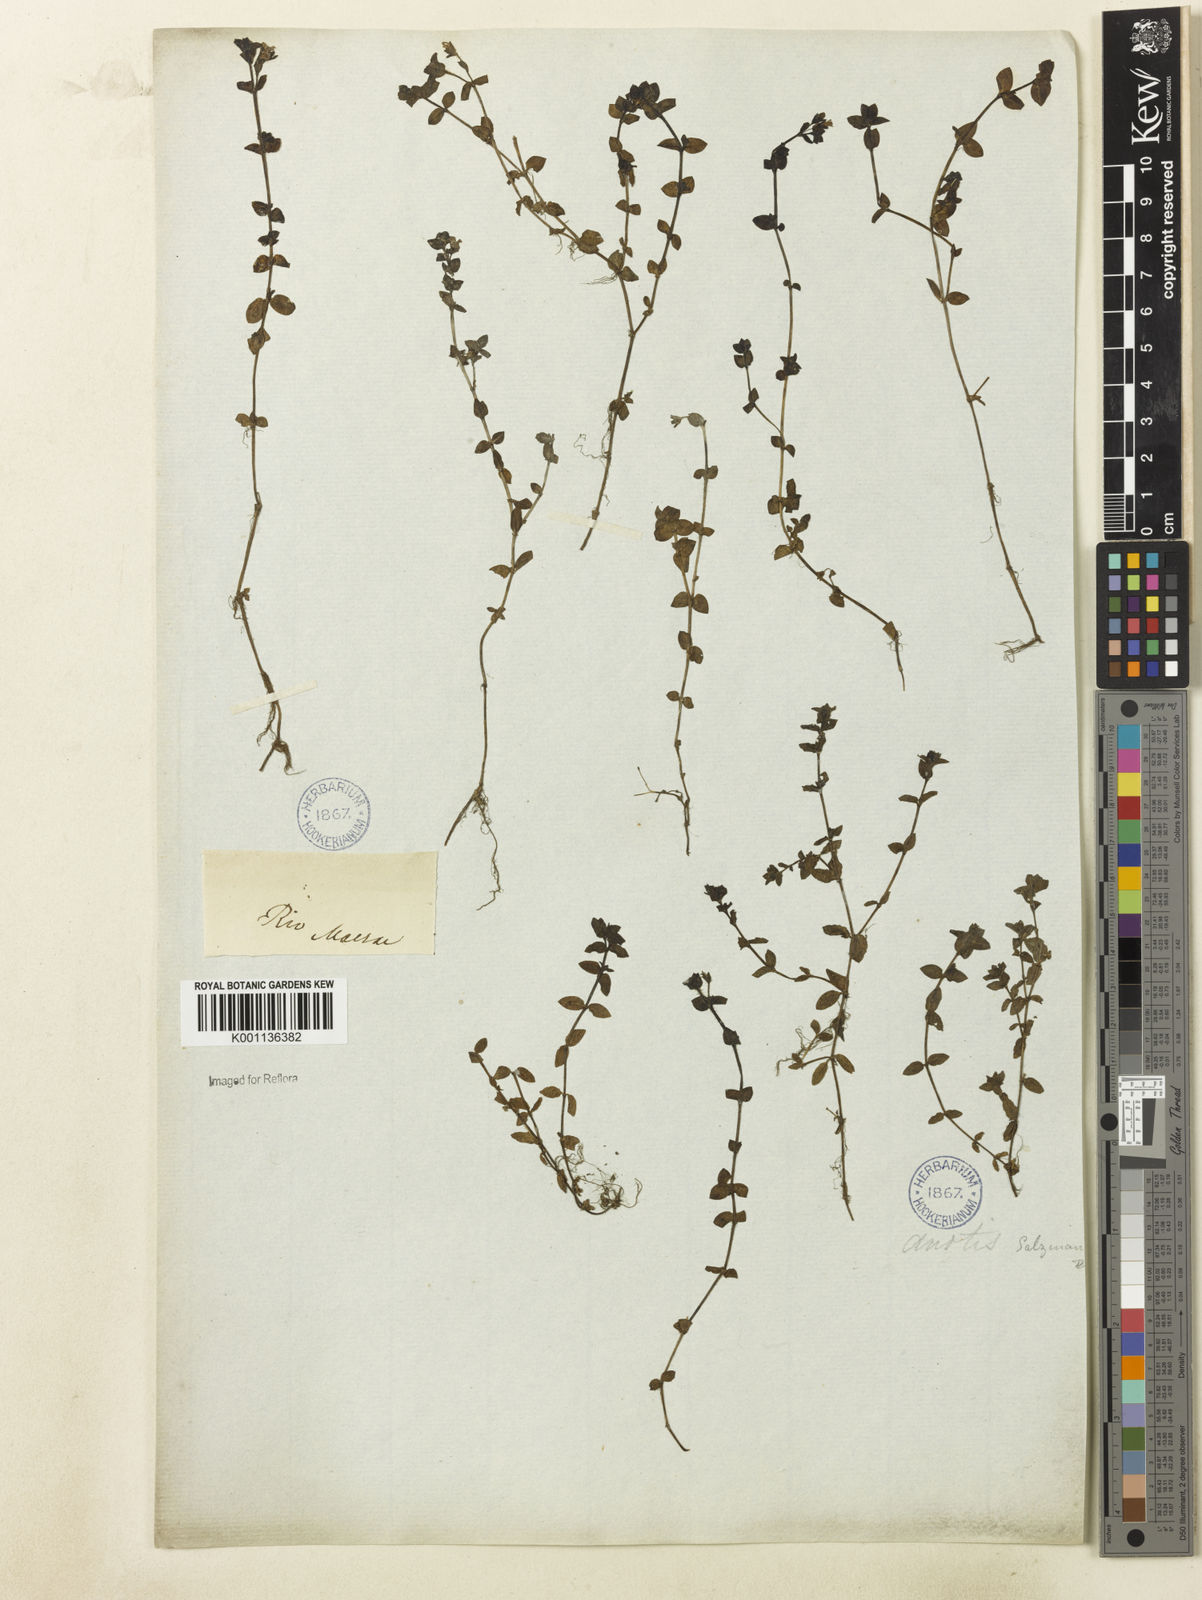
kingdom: Plantae
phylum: Tracheophyta
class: Magnoliopsida
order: Gentianales
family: Rubiaceae
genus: Oldenlandia
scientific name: Oldenlandia salzmannii
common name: Salzmann's mille graines
